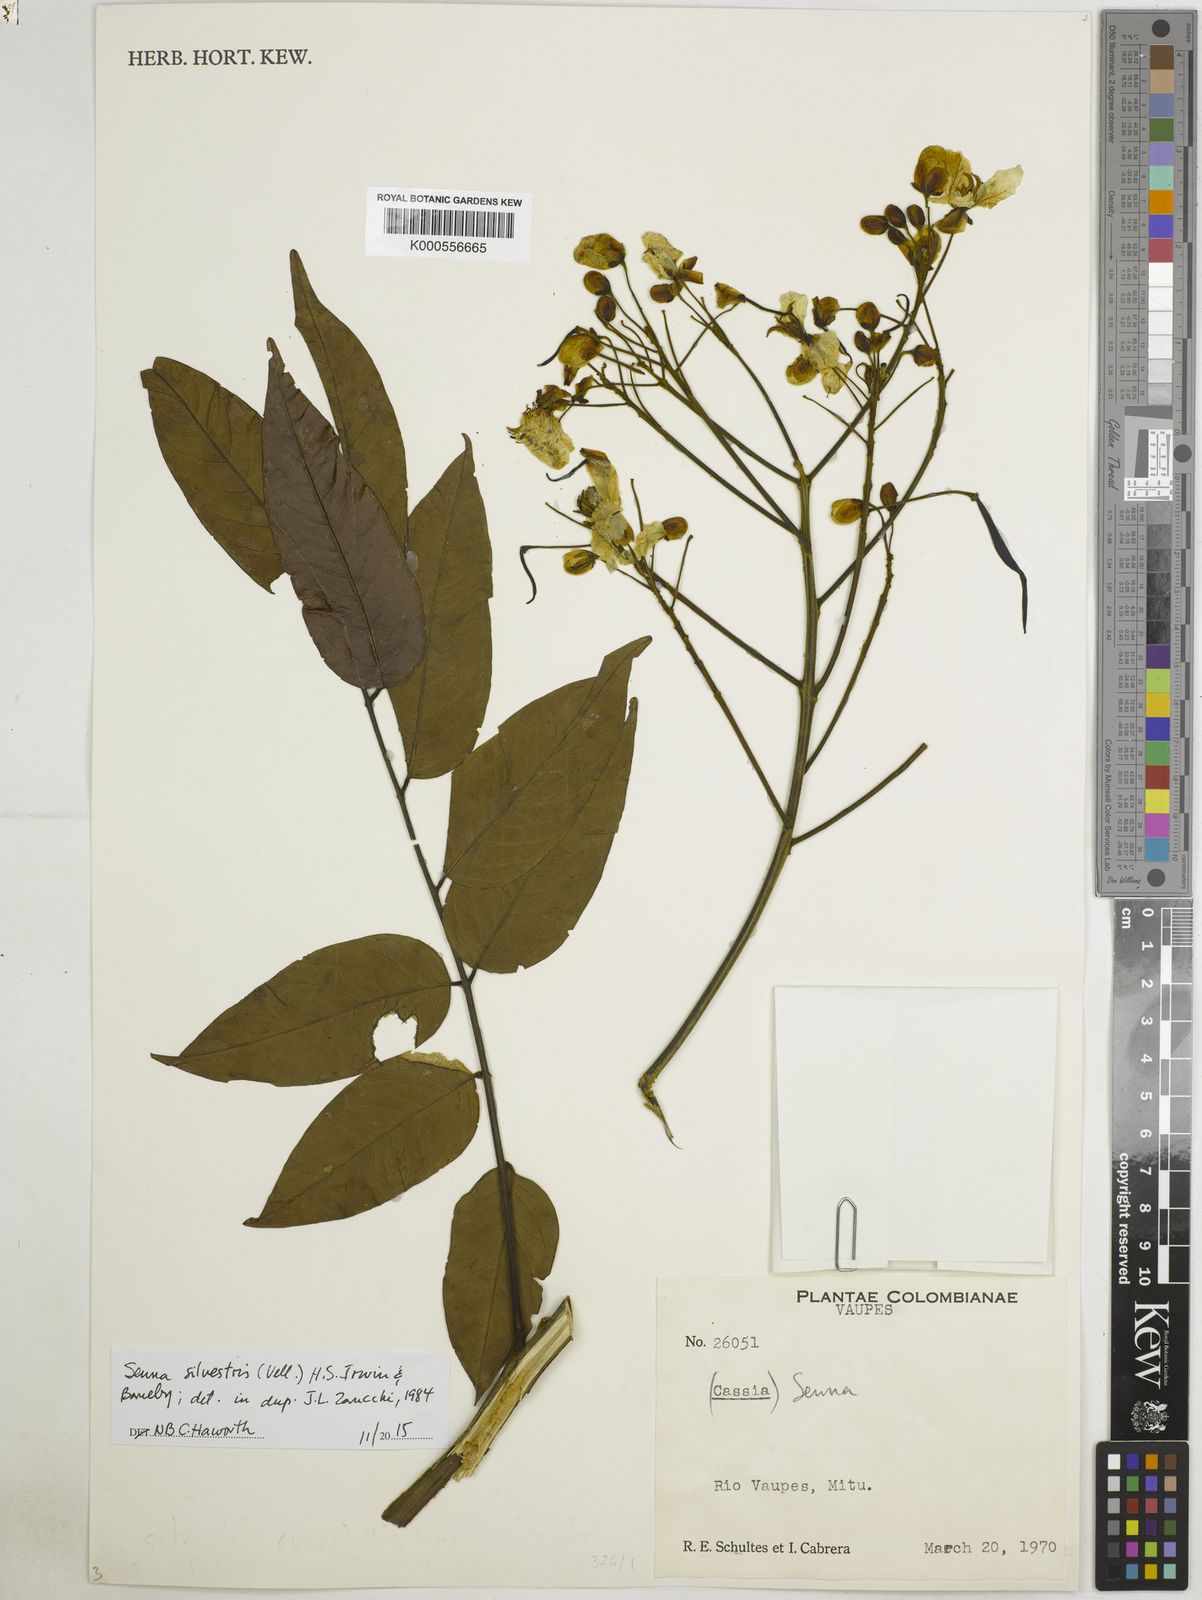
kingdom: Plantae
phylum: Tracheophyta
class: Magnoliopsida
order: Fabales
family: Fabaceae
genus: Senna
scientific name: Senna silvestris
